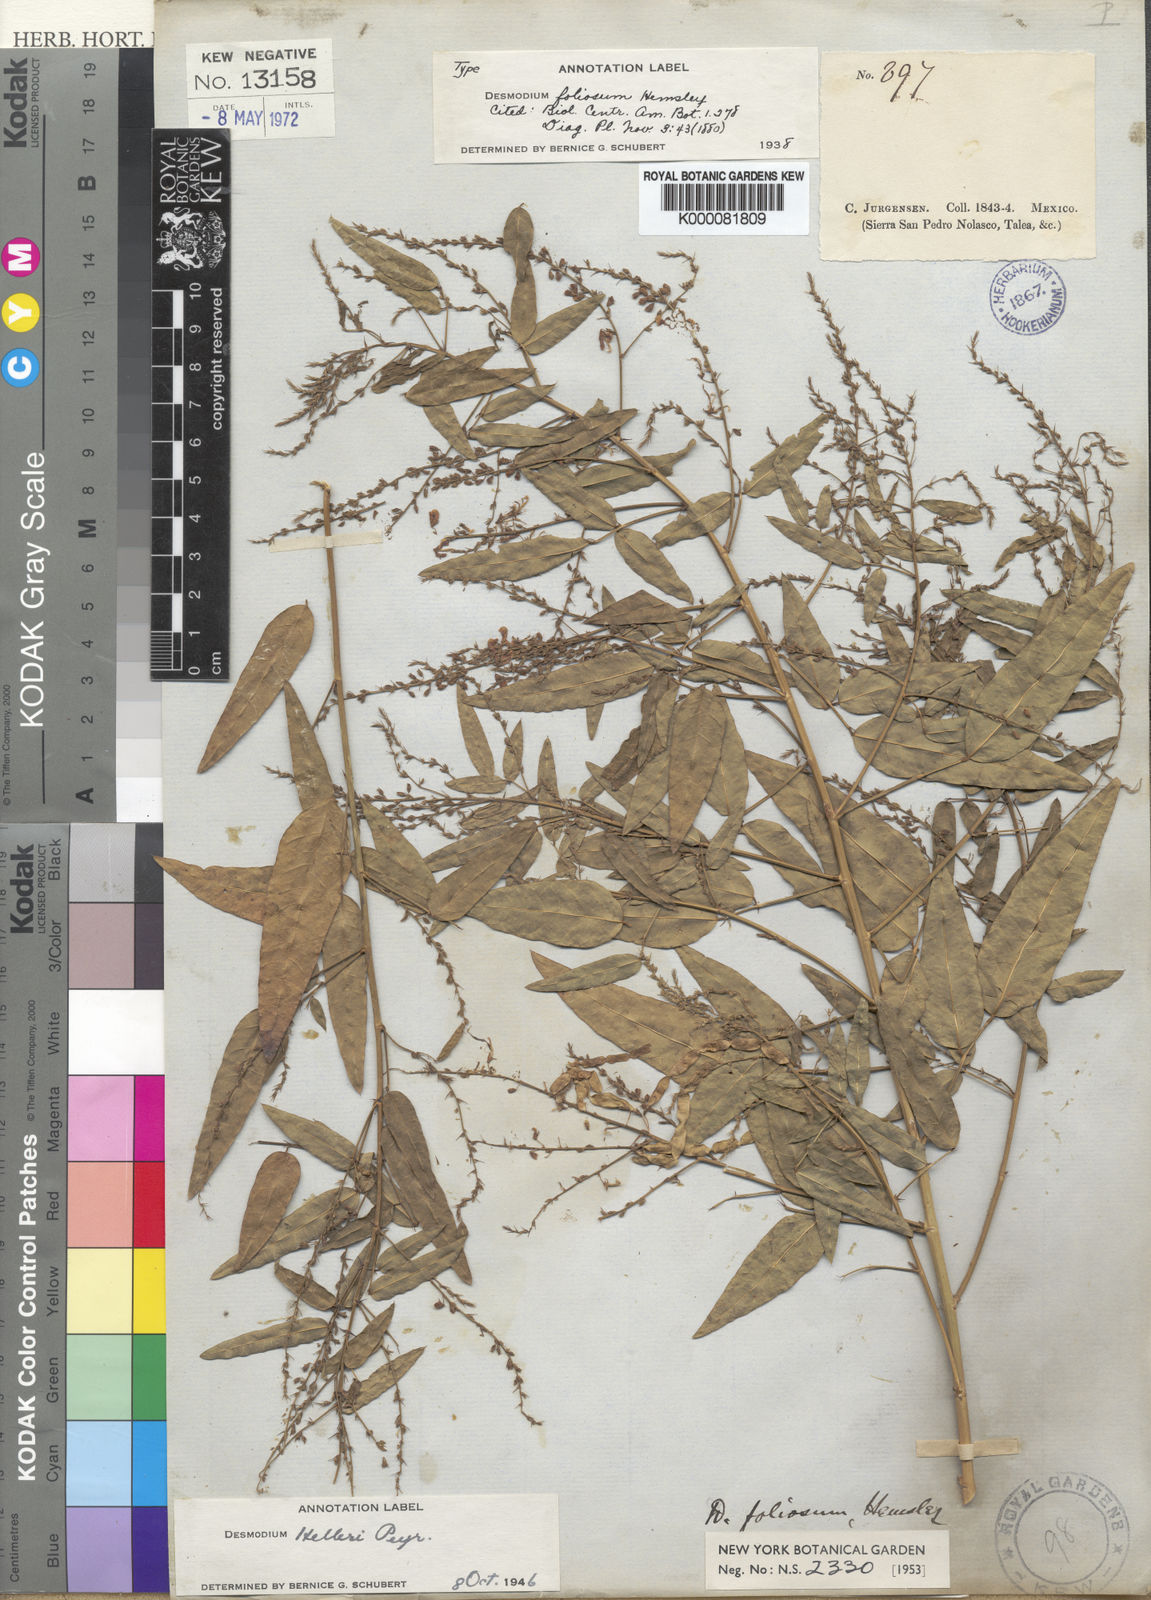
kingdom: Plantae
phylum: Tracheophyta
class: Magnoliopsida
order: Fabales
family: Fabaceae
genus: Desmodium
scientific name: Desmodium helleri
